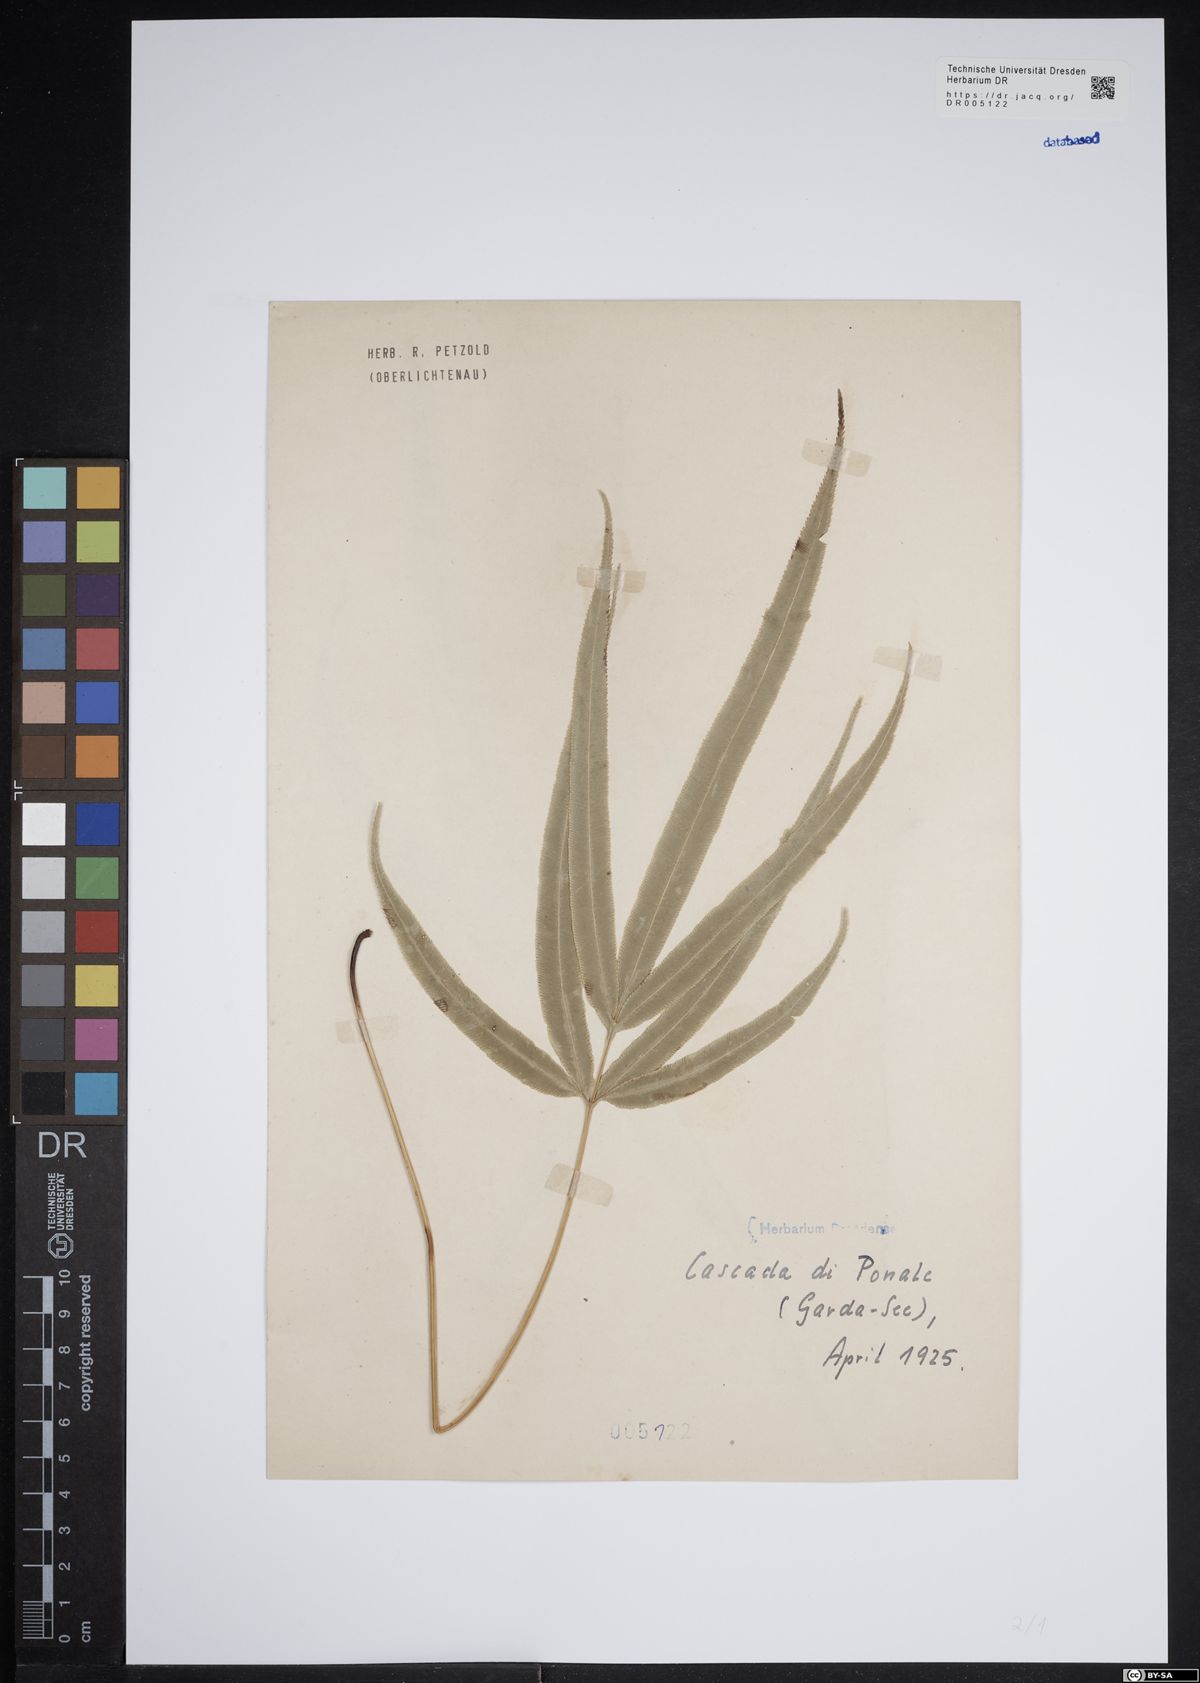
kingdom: Plantae
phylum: Tracheophyta
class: Polypodiopsida
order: Polypodiales
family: Pteridaceae
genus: Pteris
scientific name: Pteris cretica
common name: Ribbon fern
